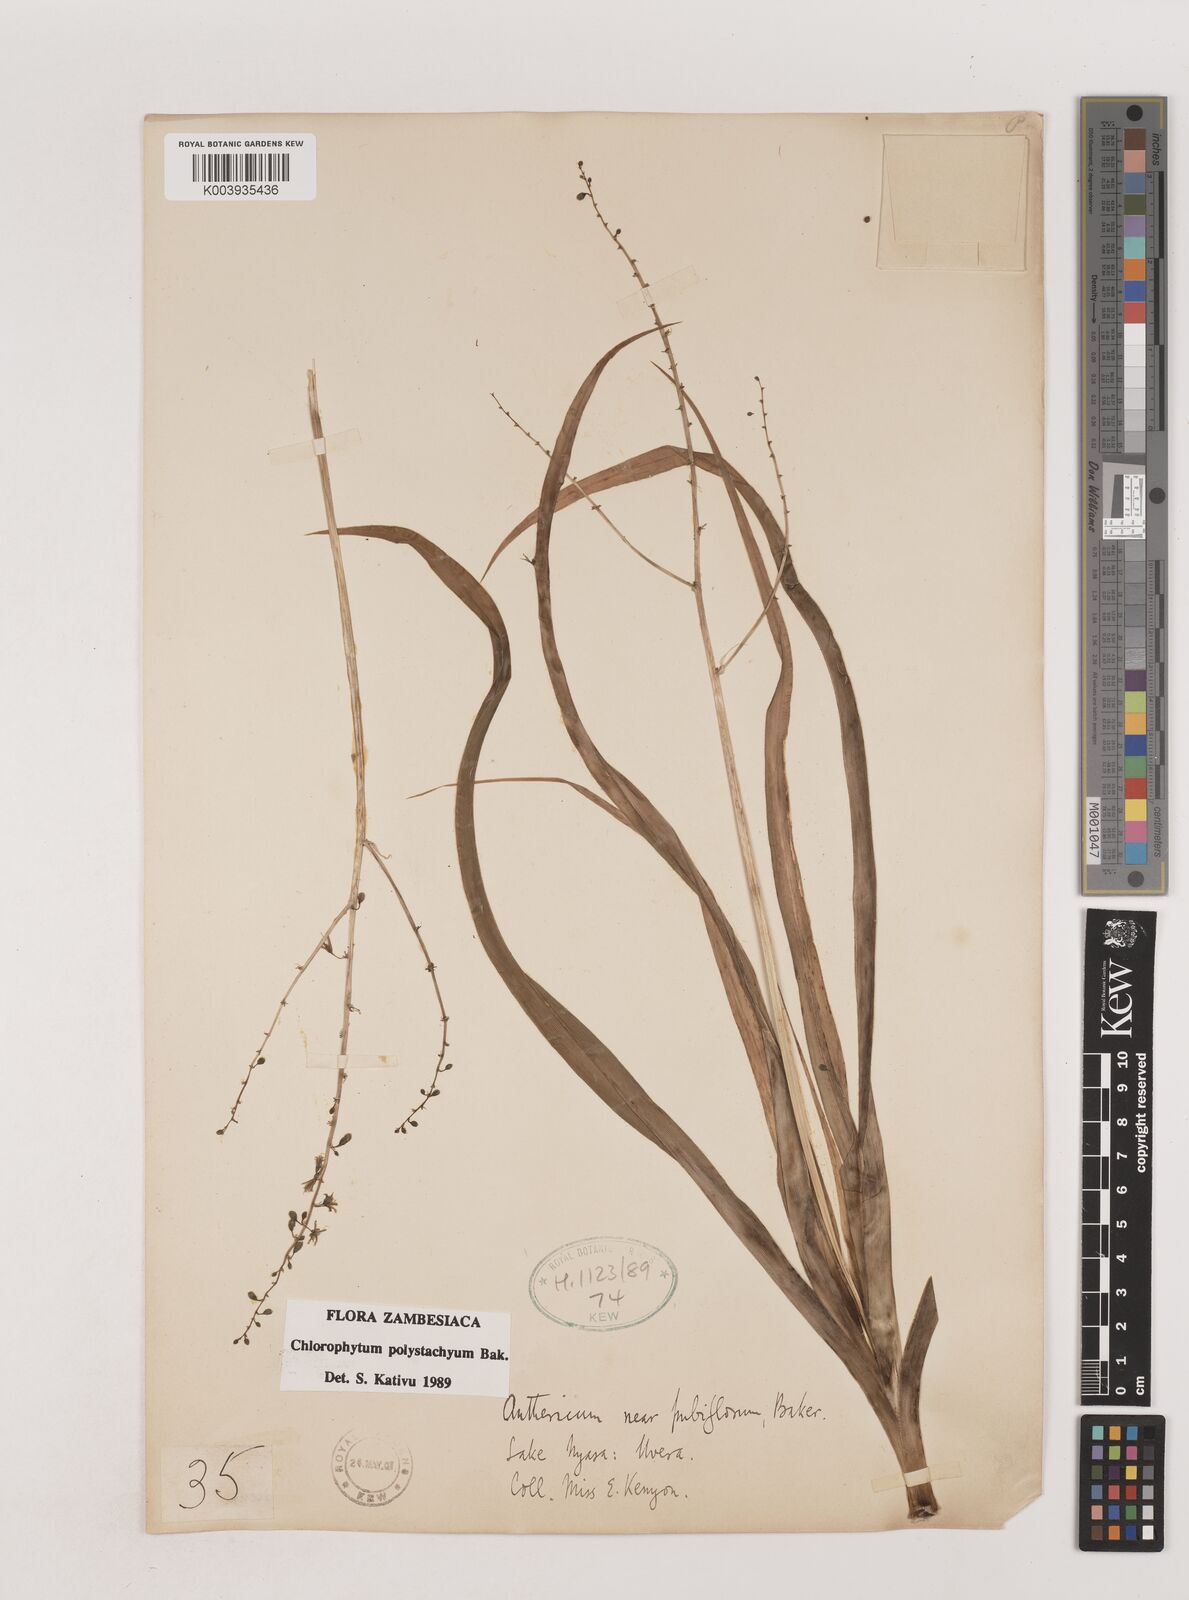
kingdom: Plantae
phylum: Tracheophyta
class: Liliopsida
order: Asparagales
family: Asparagaceae
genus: Chlorophytum
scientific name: Chlorophytum polystachys
